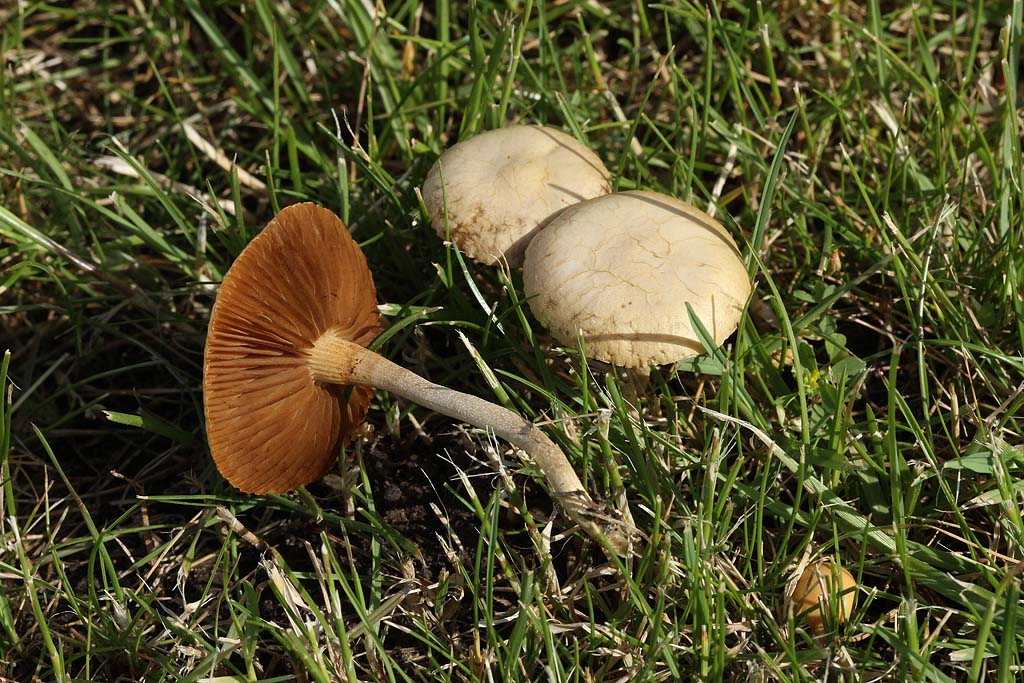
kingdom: Fungi
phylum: Basidiomycota
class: Agaricomycetes
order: Agaricales
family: Strophariaceae
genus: Agrocybe
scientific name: Agrocybe pediades
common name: almindelig agerhat
